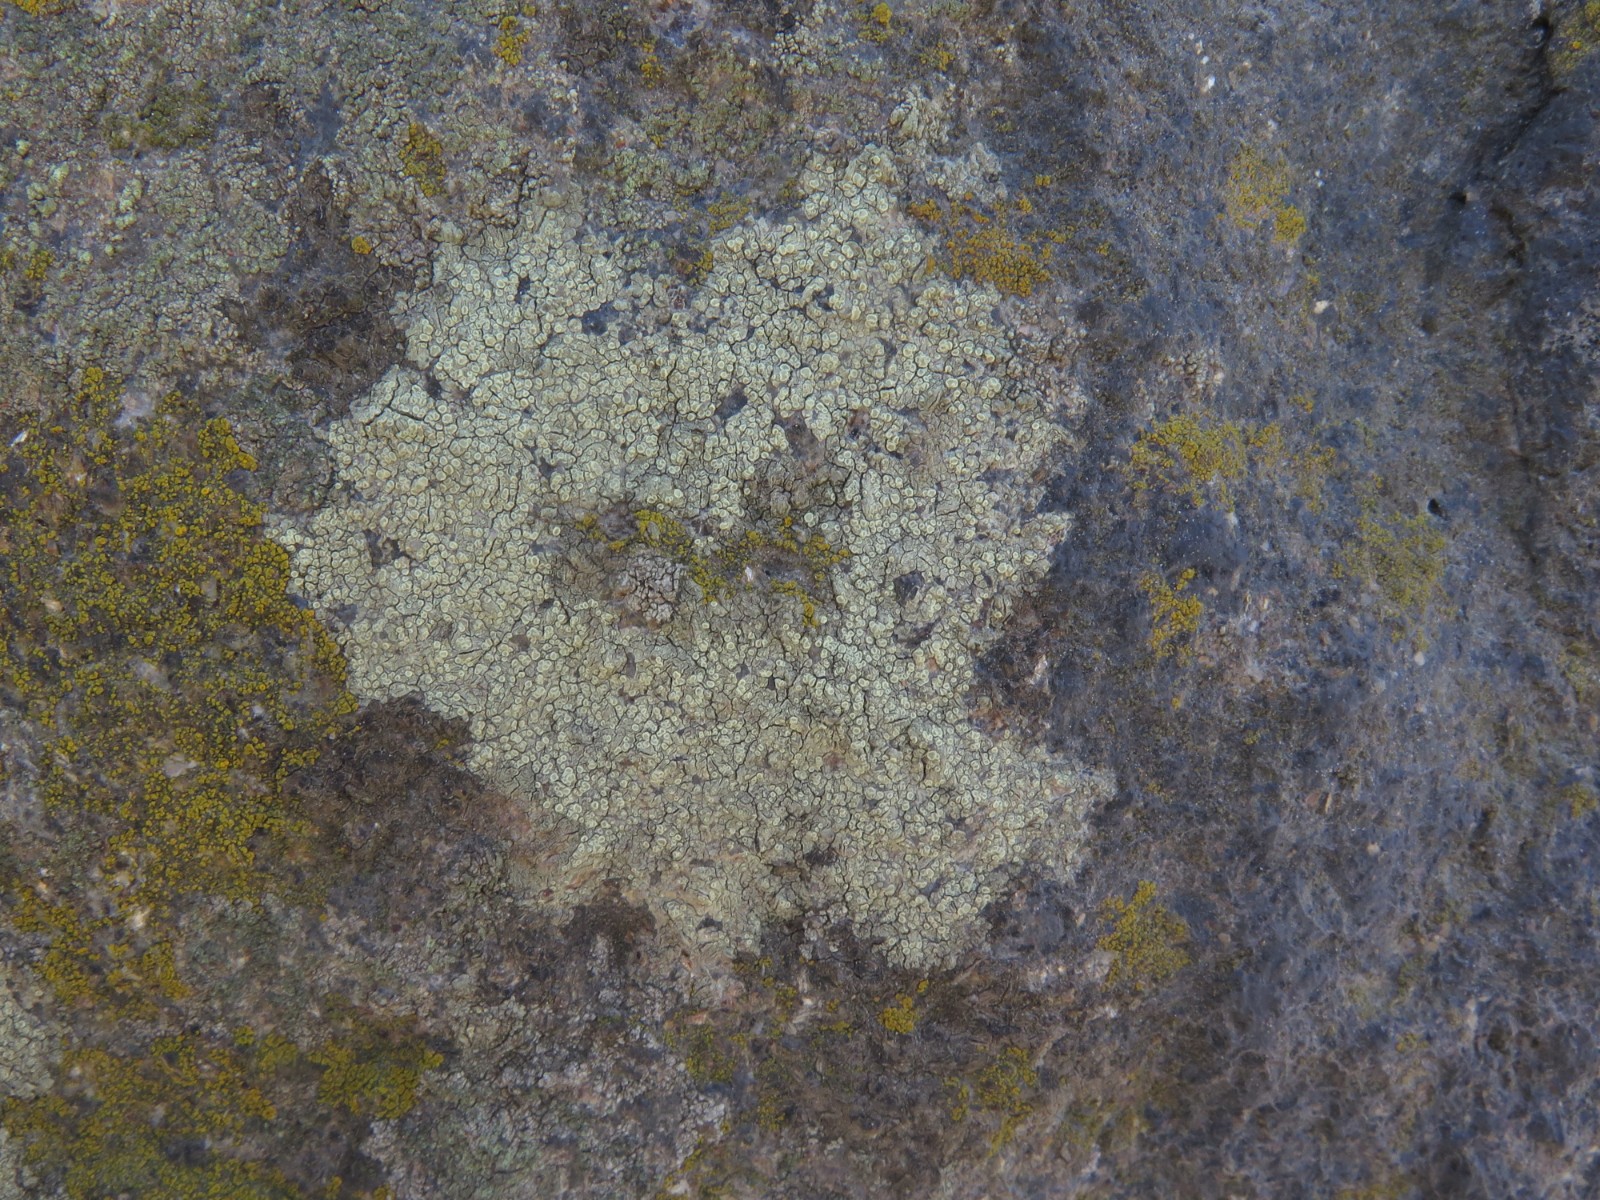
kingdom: Fungi
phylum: Ascomycota
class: Lecanoromycetes
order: Lecanorales
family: Lecanoraceae
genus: Lecanora
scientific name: Lecanora polytropa
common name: bleggrøn kantskivelav
